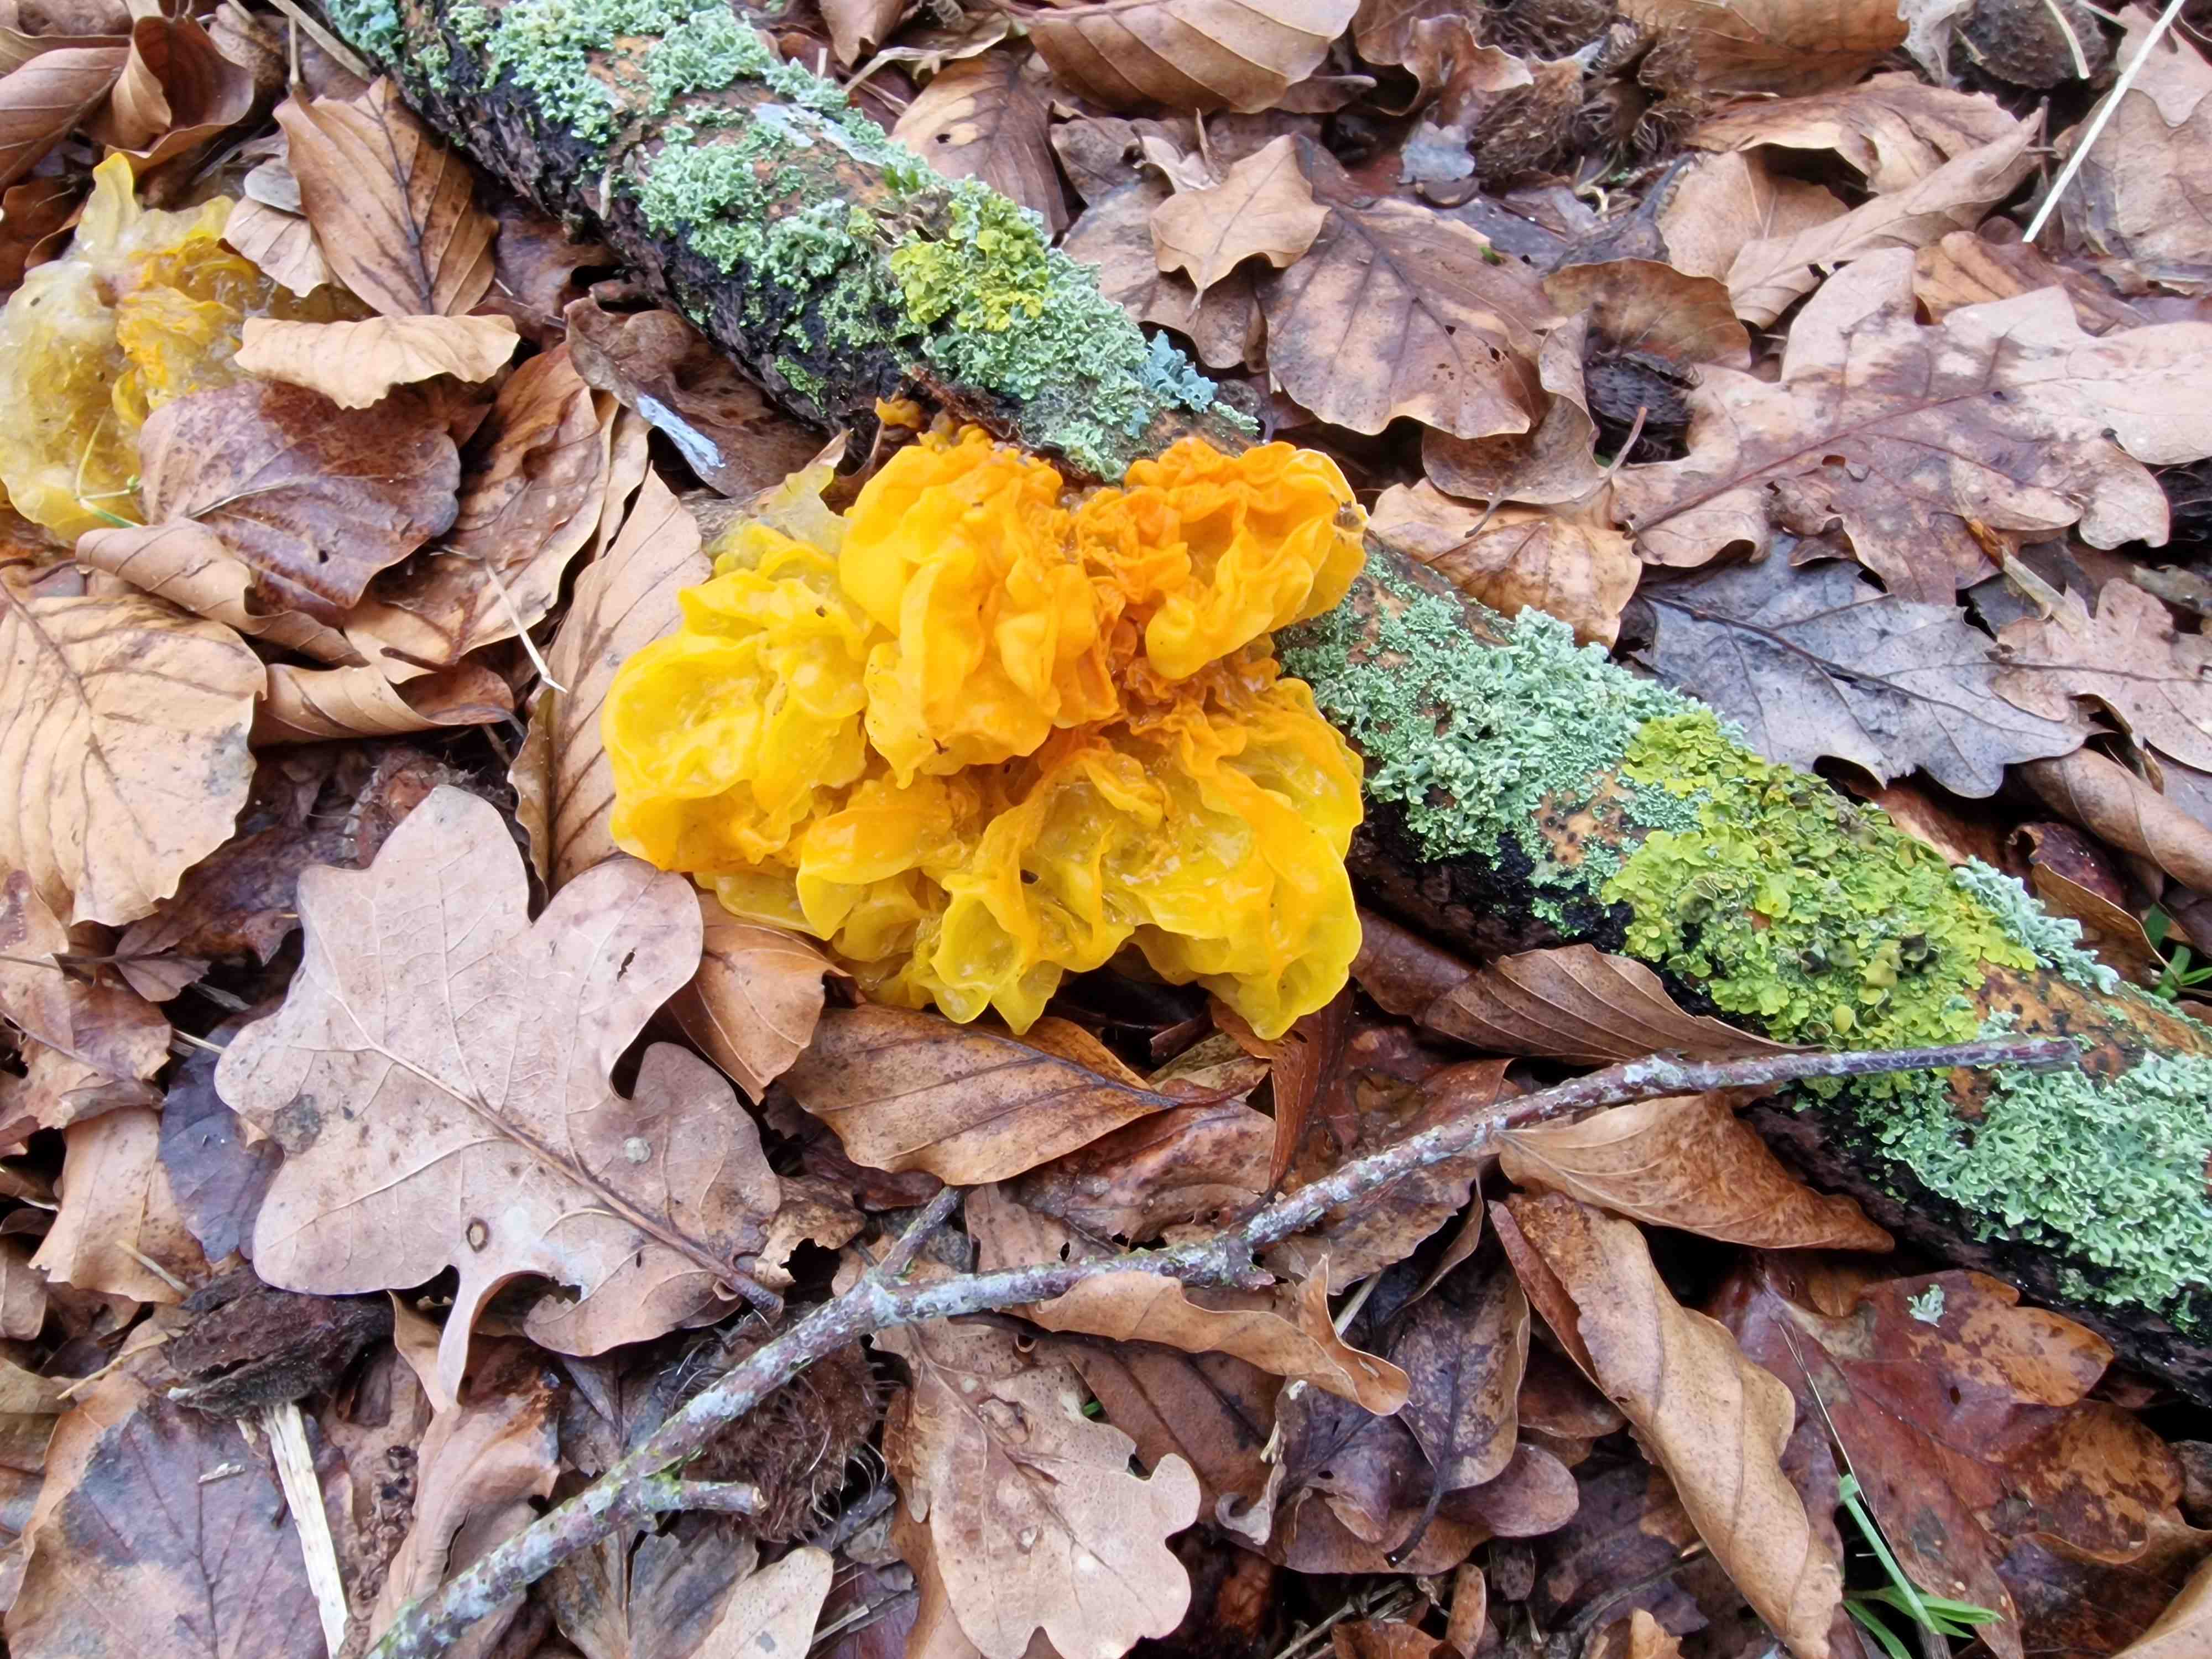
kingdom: Fungi
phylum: Basidiomycota
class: Tremellomycetes
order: Tremellales
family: Tremellaceae
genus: Tremella
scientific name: Tremella mesenterica
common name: gul bævresvamp
